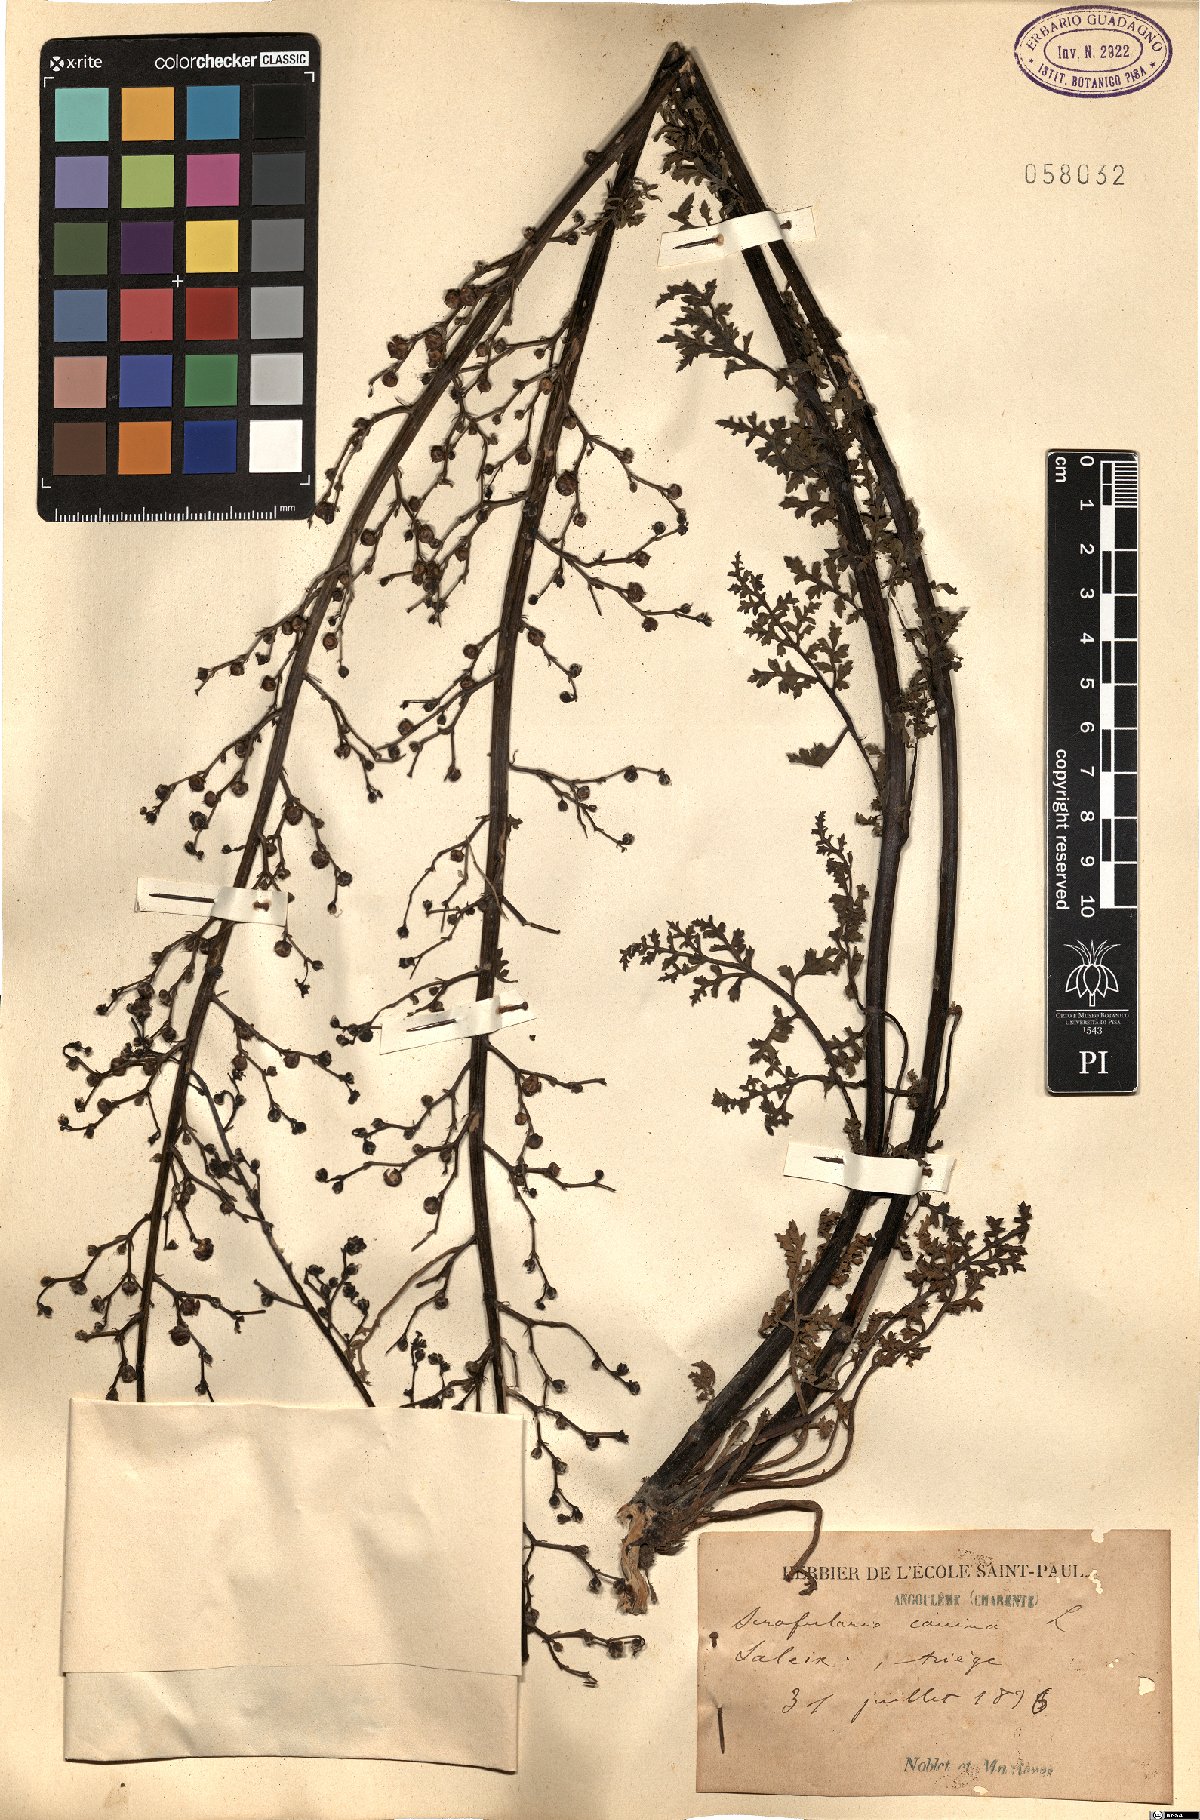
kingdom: Plantae
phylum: Tracheophyta
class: Magnoliopsida
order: Lamiales
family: Scrophulariaceae
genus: Scrophularia
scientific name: Scrophularia canina
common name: French figwort
